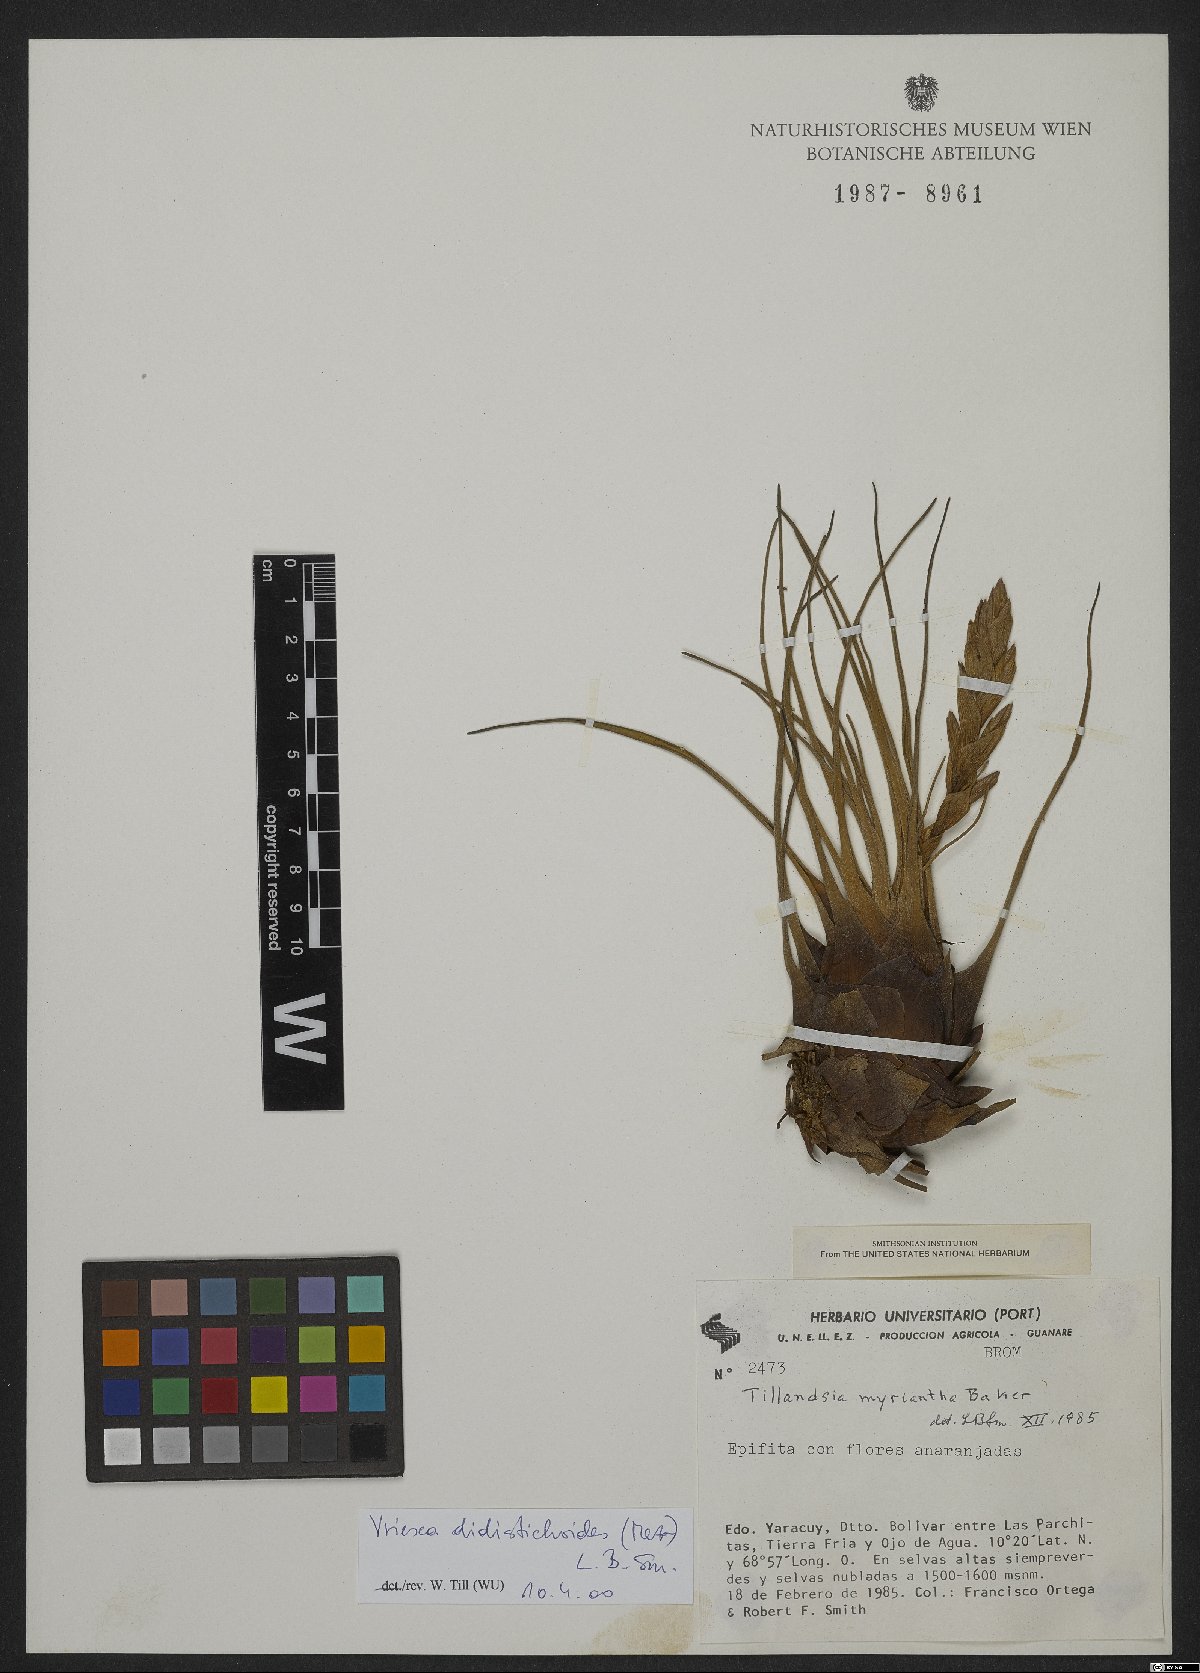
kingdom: Plantae
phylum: Tracheophyta
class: Liliopsida
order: Poales
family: Bromeliaceae
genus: Tillandsia
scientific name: Tillandsia paraensis
